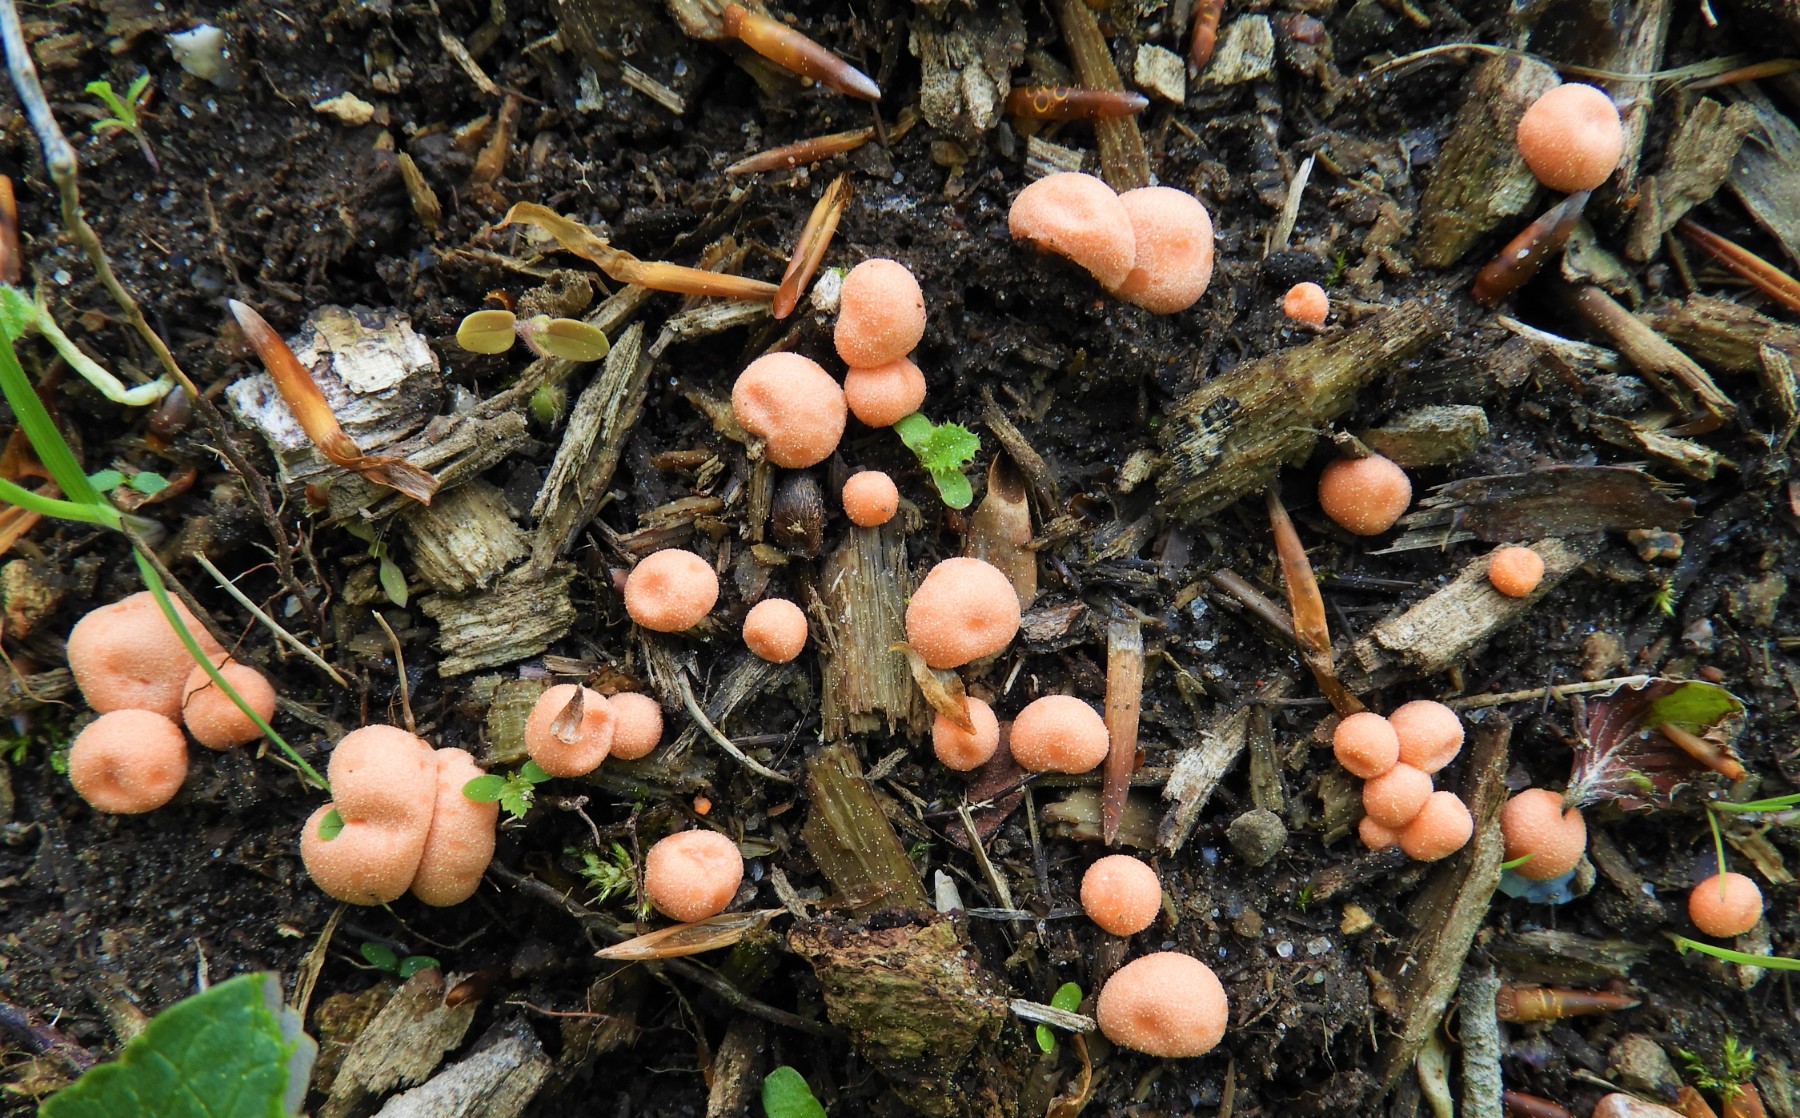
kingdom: Protozoa
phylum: Mycetozoa
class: Myxomycetes
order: Cribrariales
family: Tubiferaceae
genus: Lycogala
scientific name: Lycogala epidendrum
